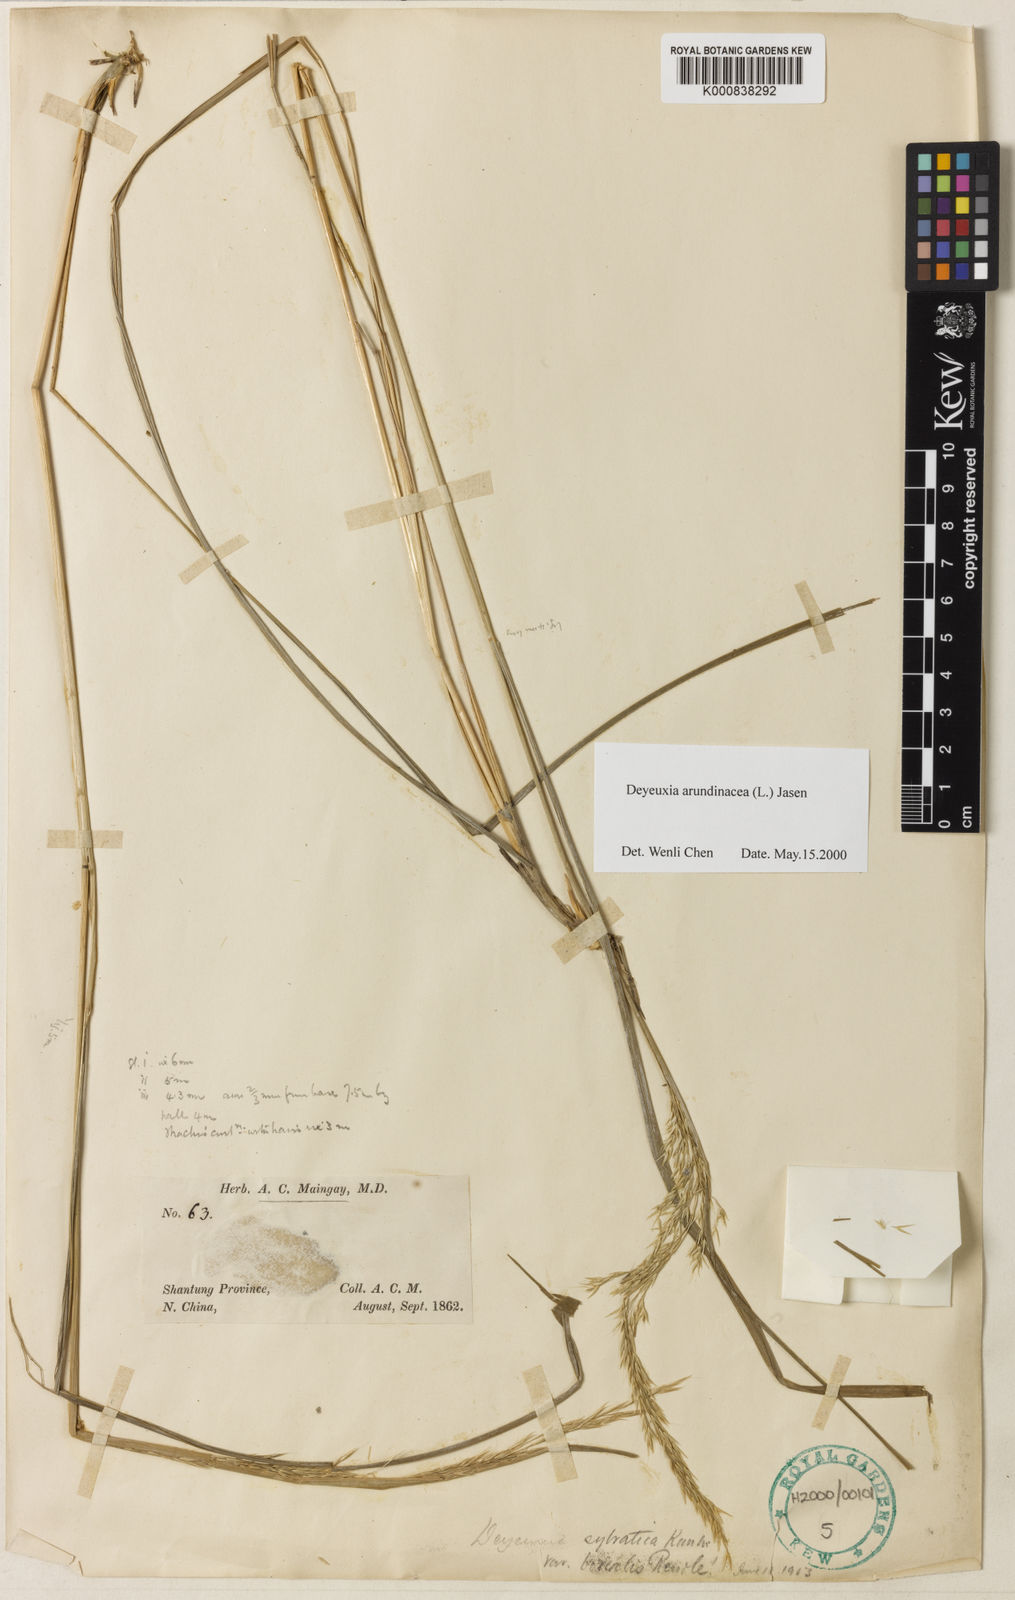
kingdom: Plantae
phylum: Tracheophyta
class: Liliopsida
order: Poales
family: Poaceae
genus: Calamagrostis
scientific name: Calamagrostis arundinacea
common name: Metskastik
